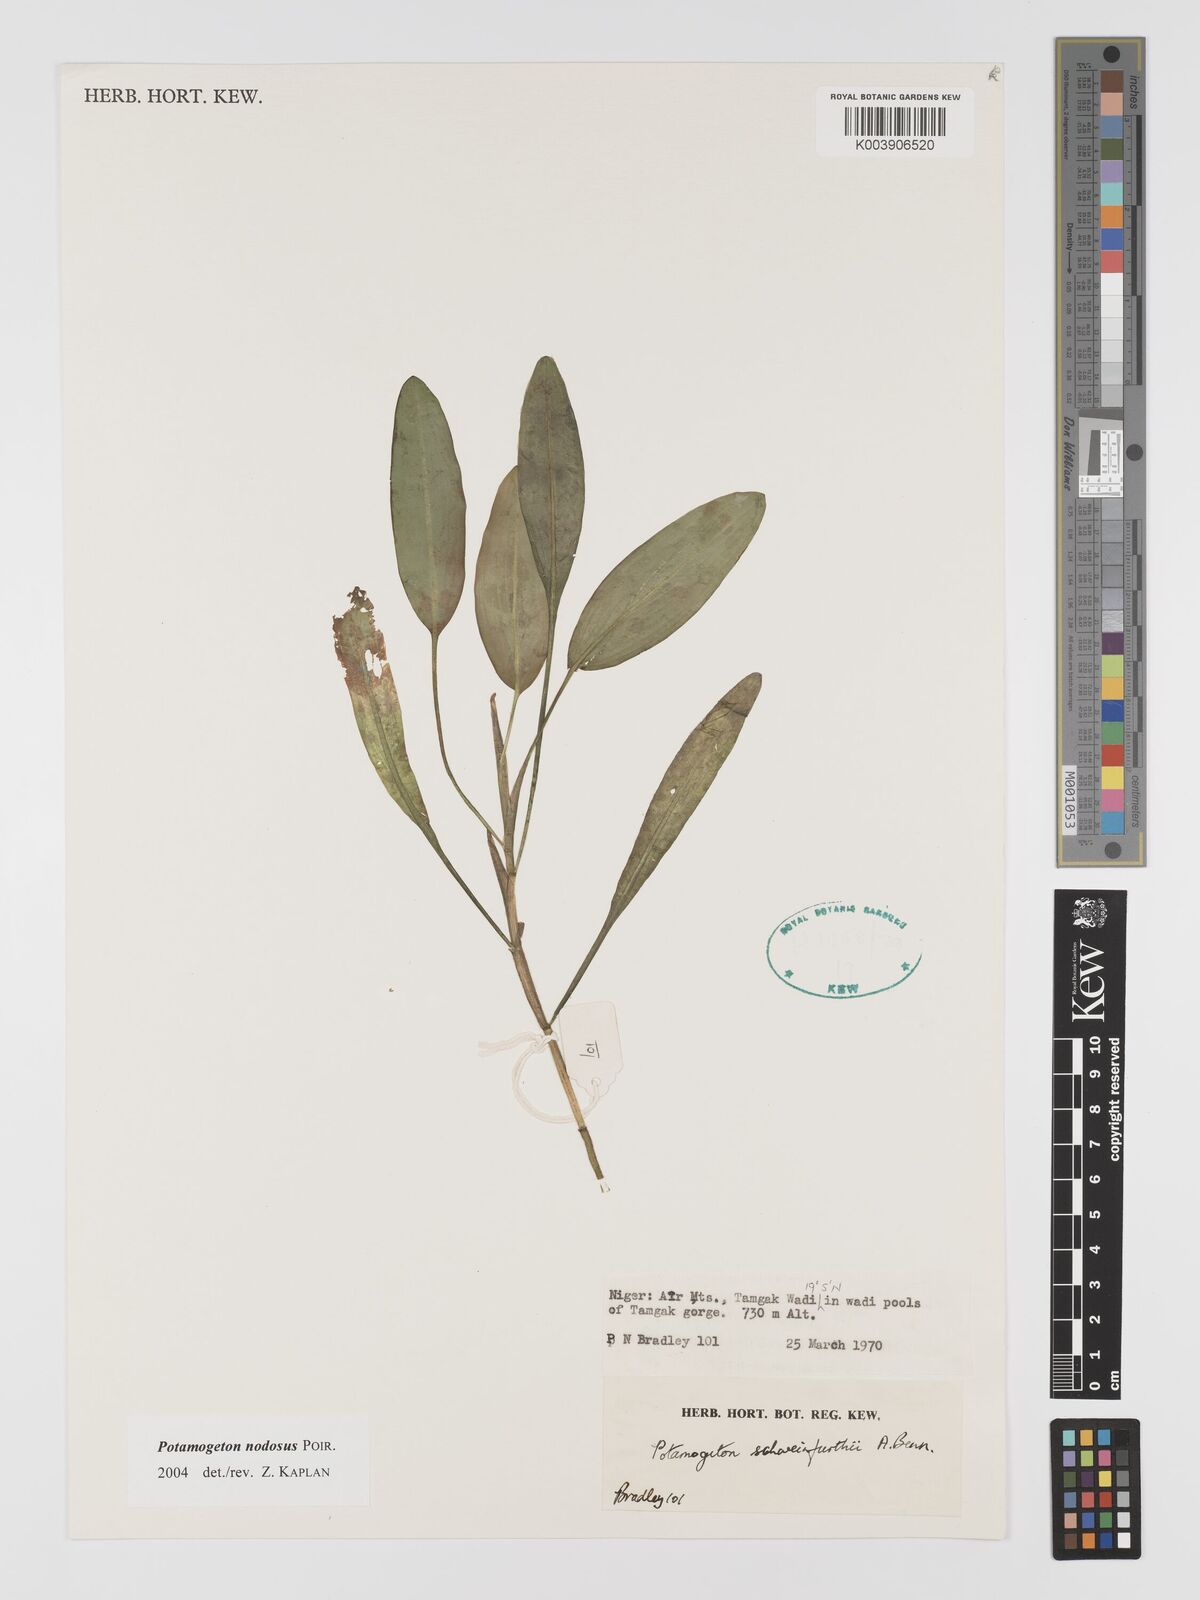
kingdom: Plantae
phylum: Tracheophyta
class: Liliopsida
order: Alismatales
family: Potamogetonaceae
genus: Potamogeton
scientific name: Potamogeton nodosus
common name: Loddon pondweed
